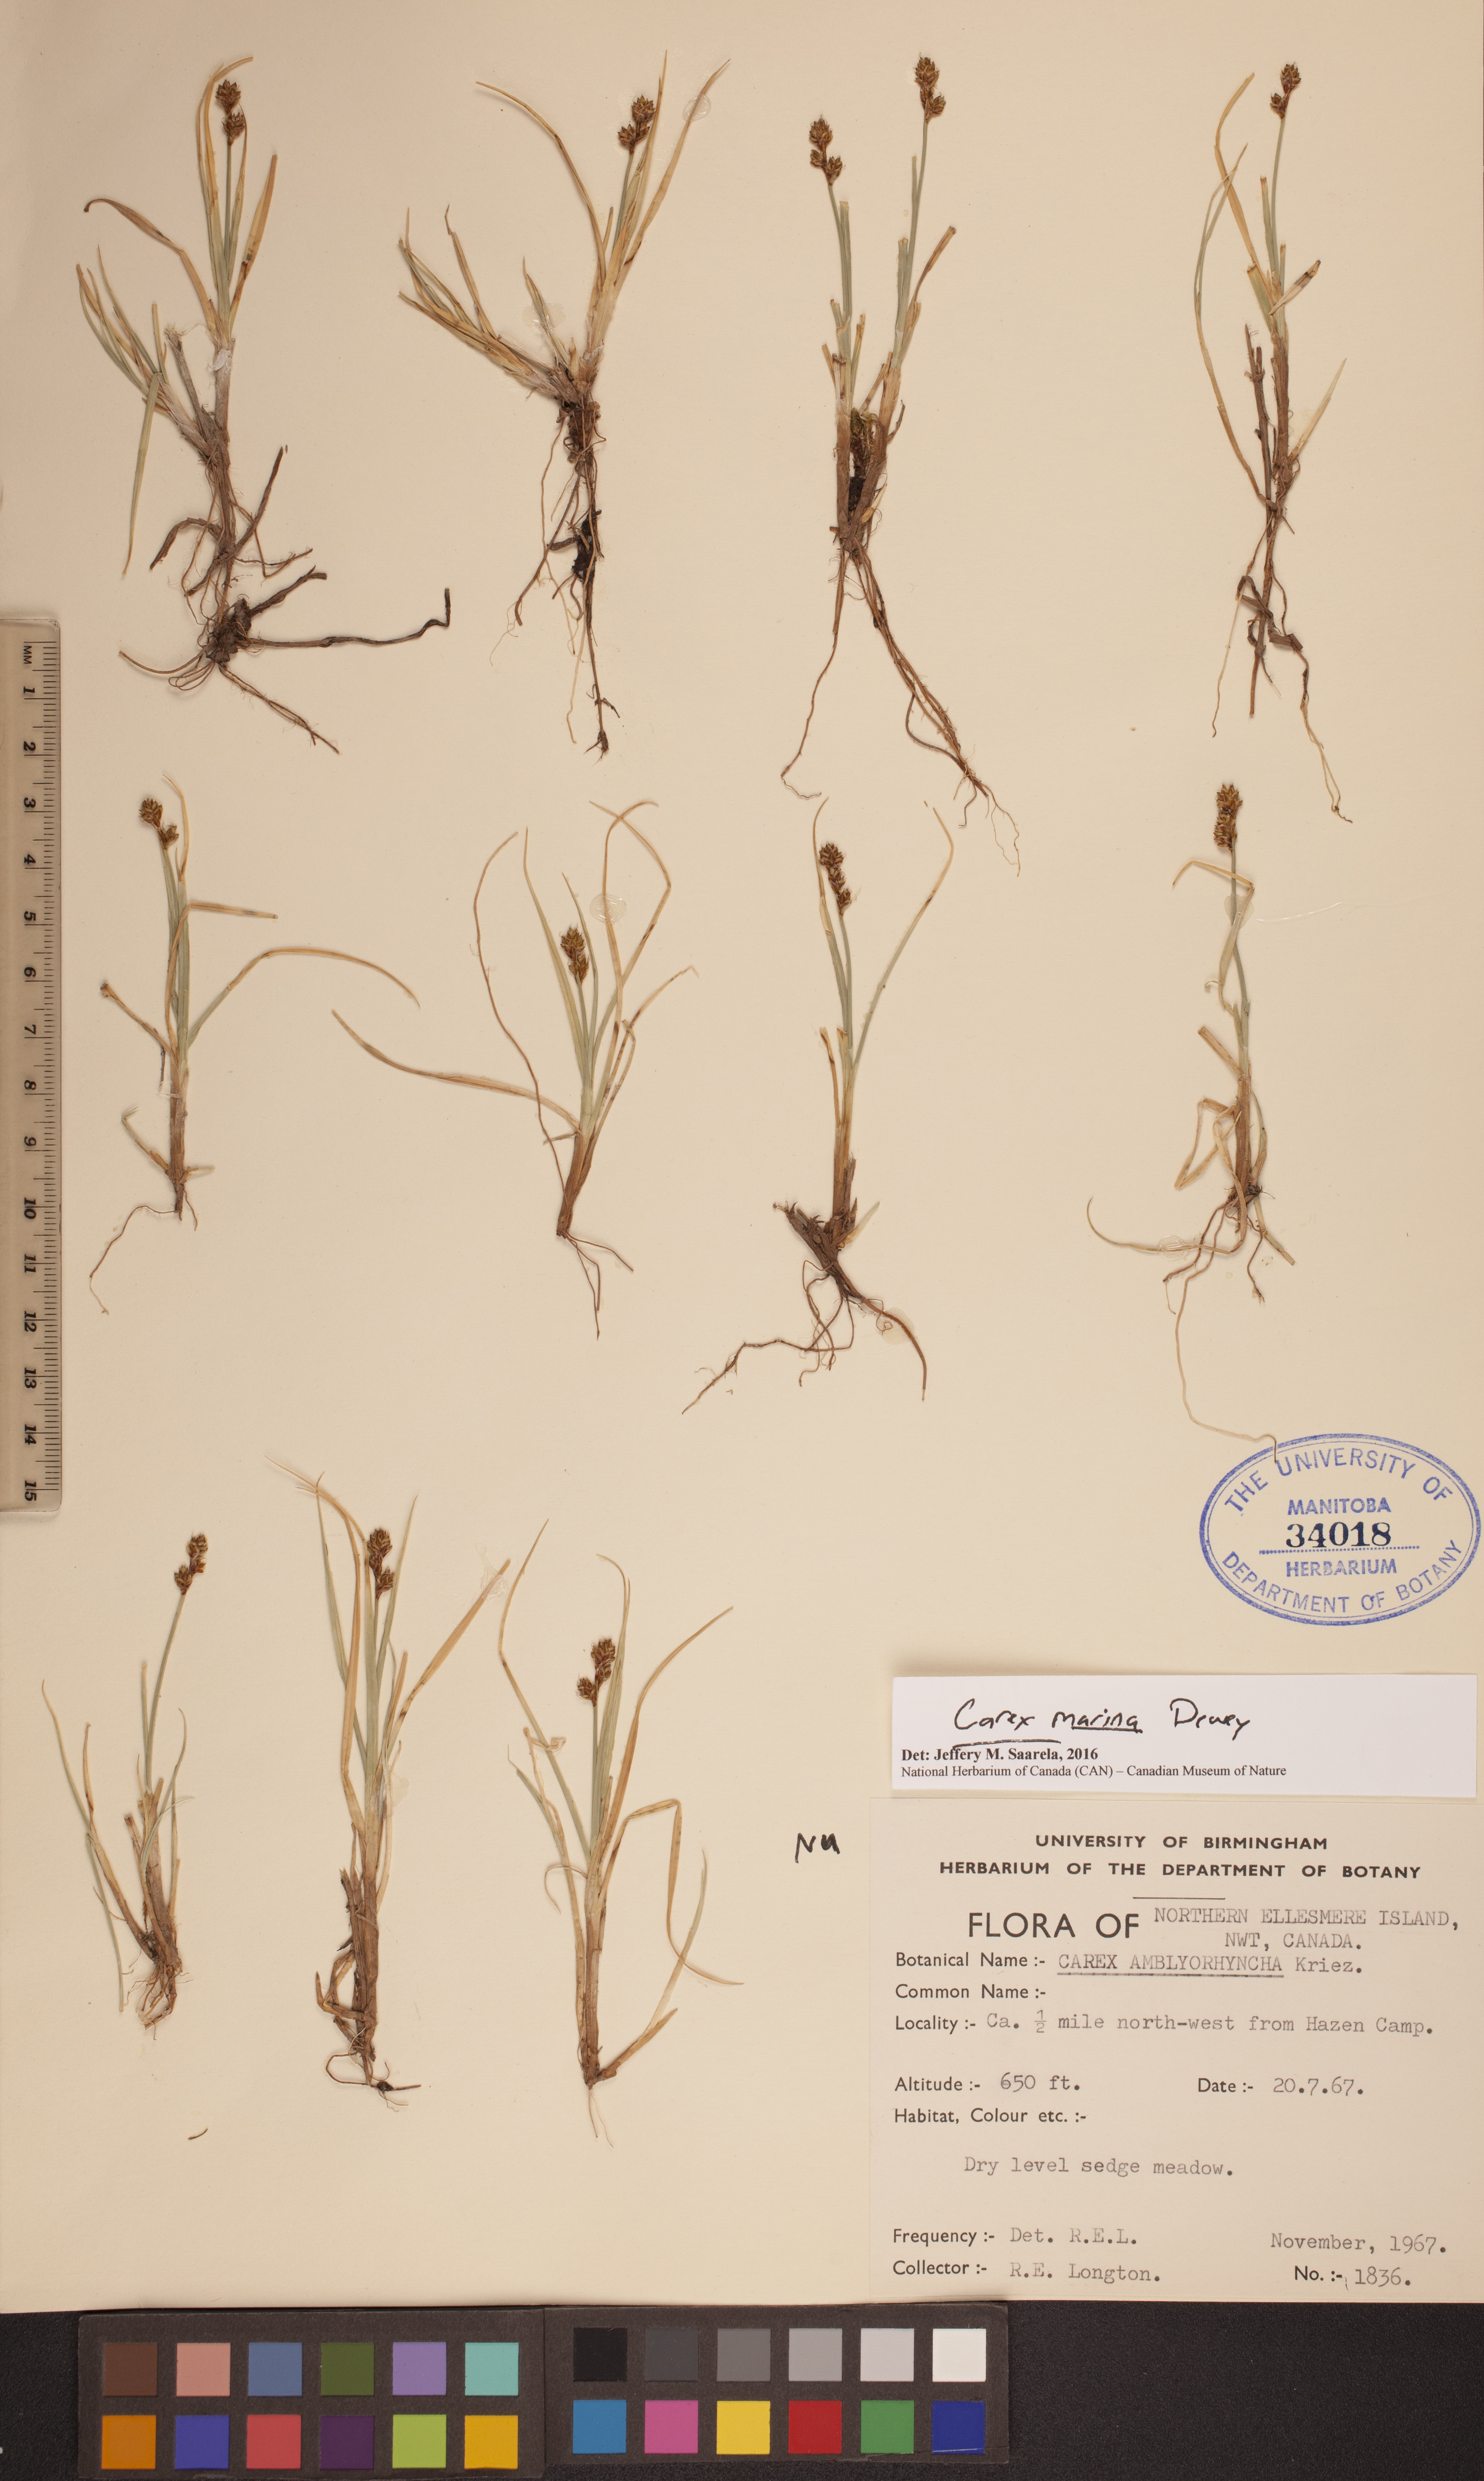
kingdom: Plantae
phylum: Tracheophyta
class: Liliopsida
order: Poales
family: Cyperaceae
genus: Carex
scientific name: Carex marina
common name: Seashore sedge
